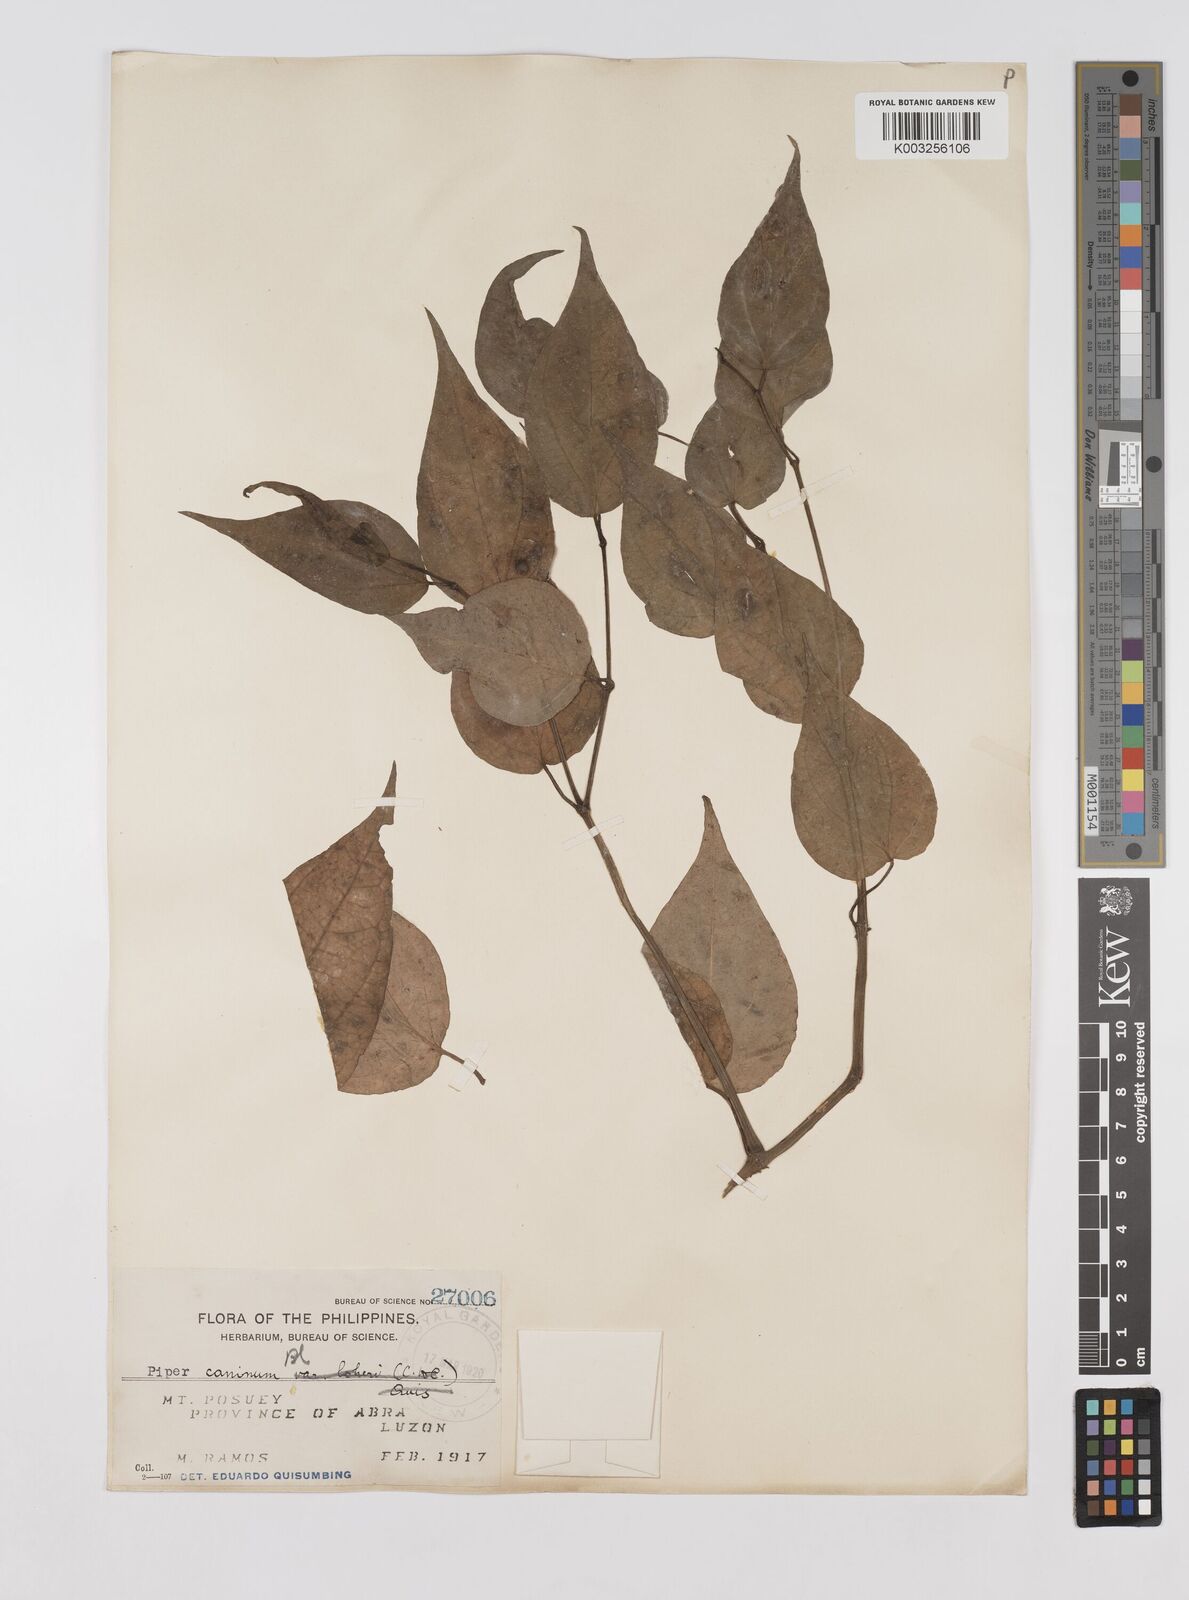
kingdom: Plantae
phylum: Tracheophyta
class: Magnoliopsida
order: Piperales
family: Piperaceae
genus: Piper
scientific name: Piper lanatum
